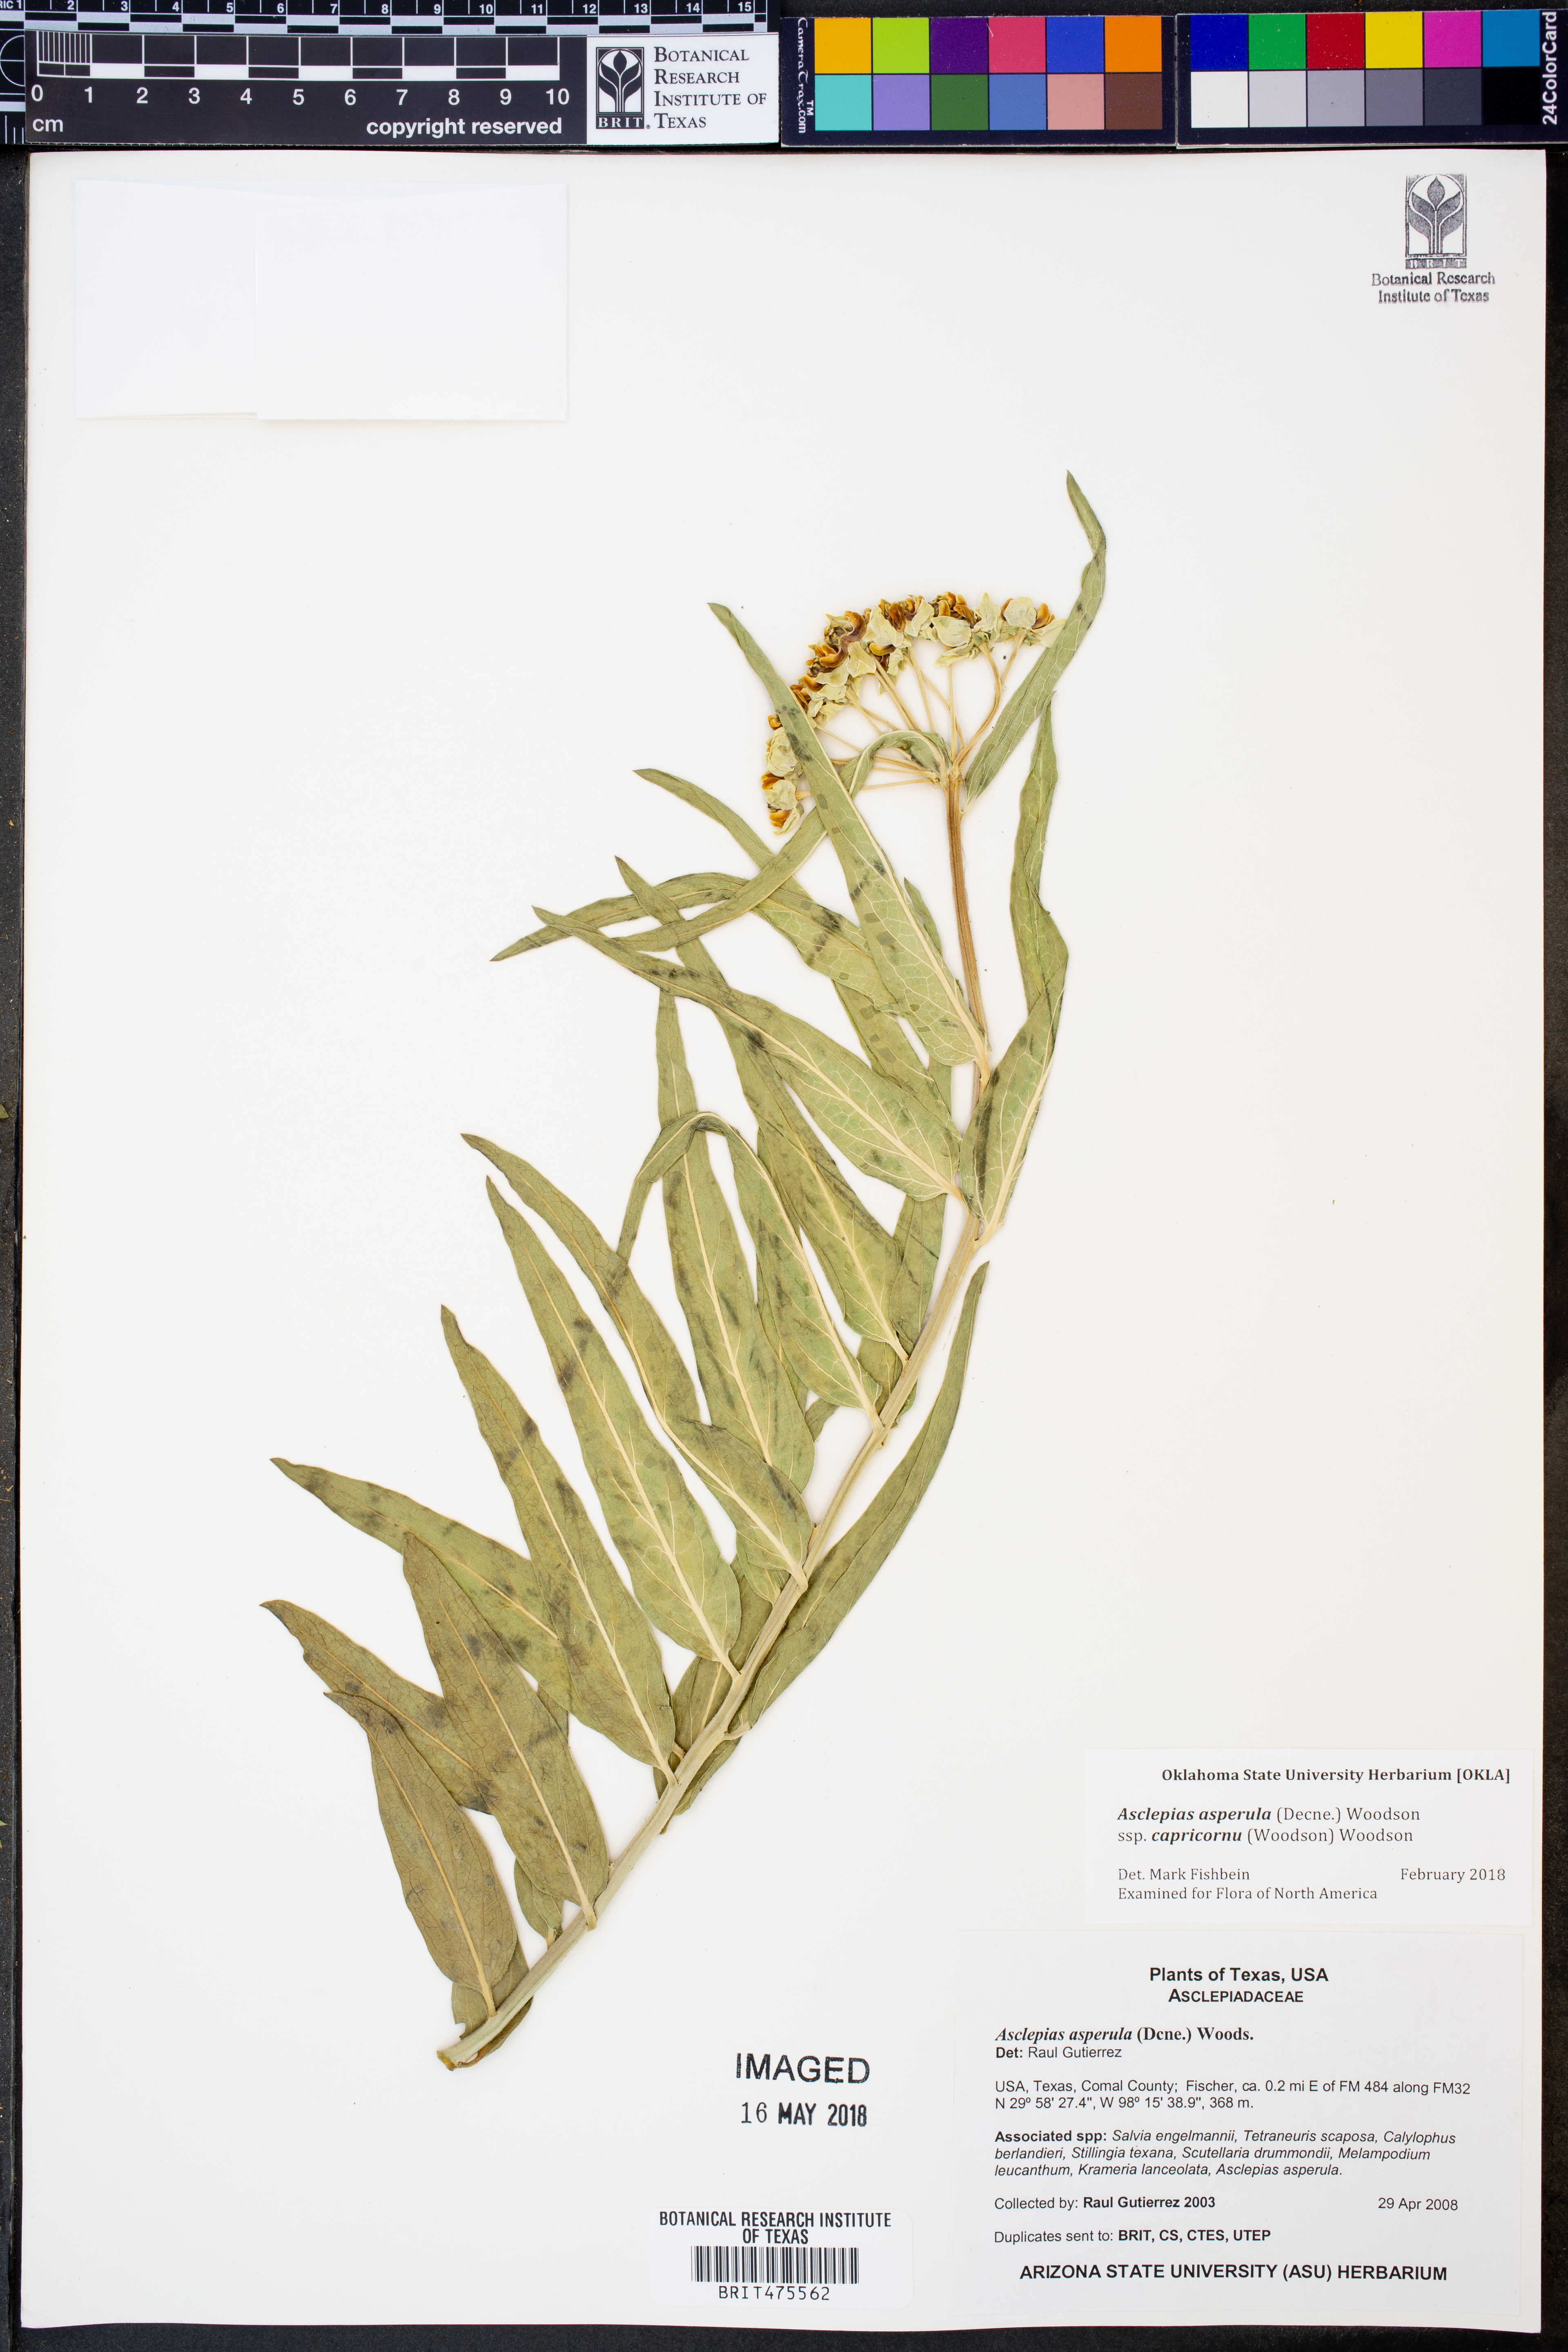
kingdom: Plantae
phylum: Tracheophyta
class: Magnoliopsida
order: Gentianales
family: Apocynaceae
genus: Asclepias
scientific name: Asclepias asperula
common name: Antelope horns
